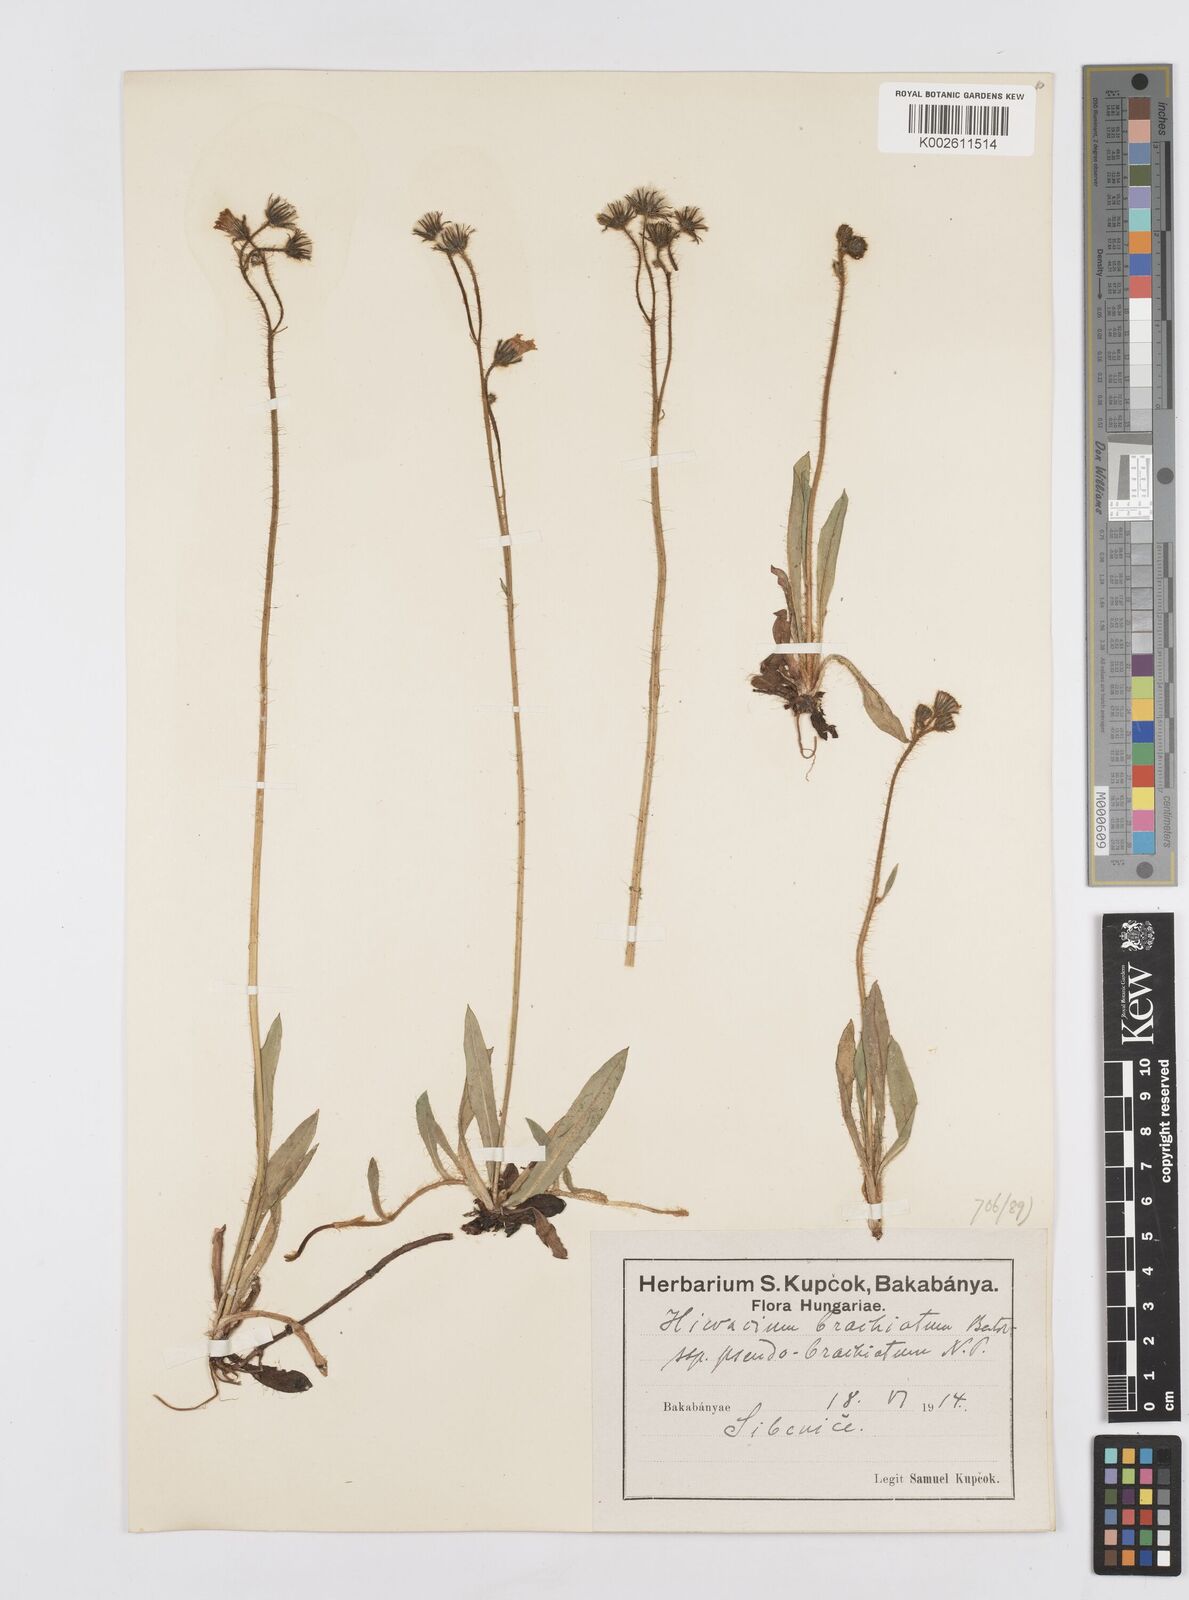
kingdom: Plantae
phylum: Tracheophyta
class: Magnoliopsida
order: Asterales
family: Asteraceae
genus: Pilosella
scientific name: Pilosella acutifolia
